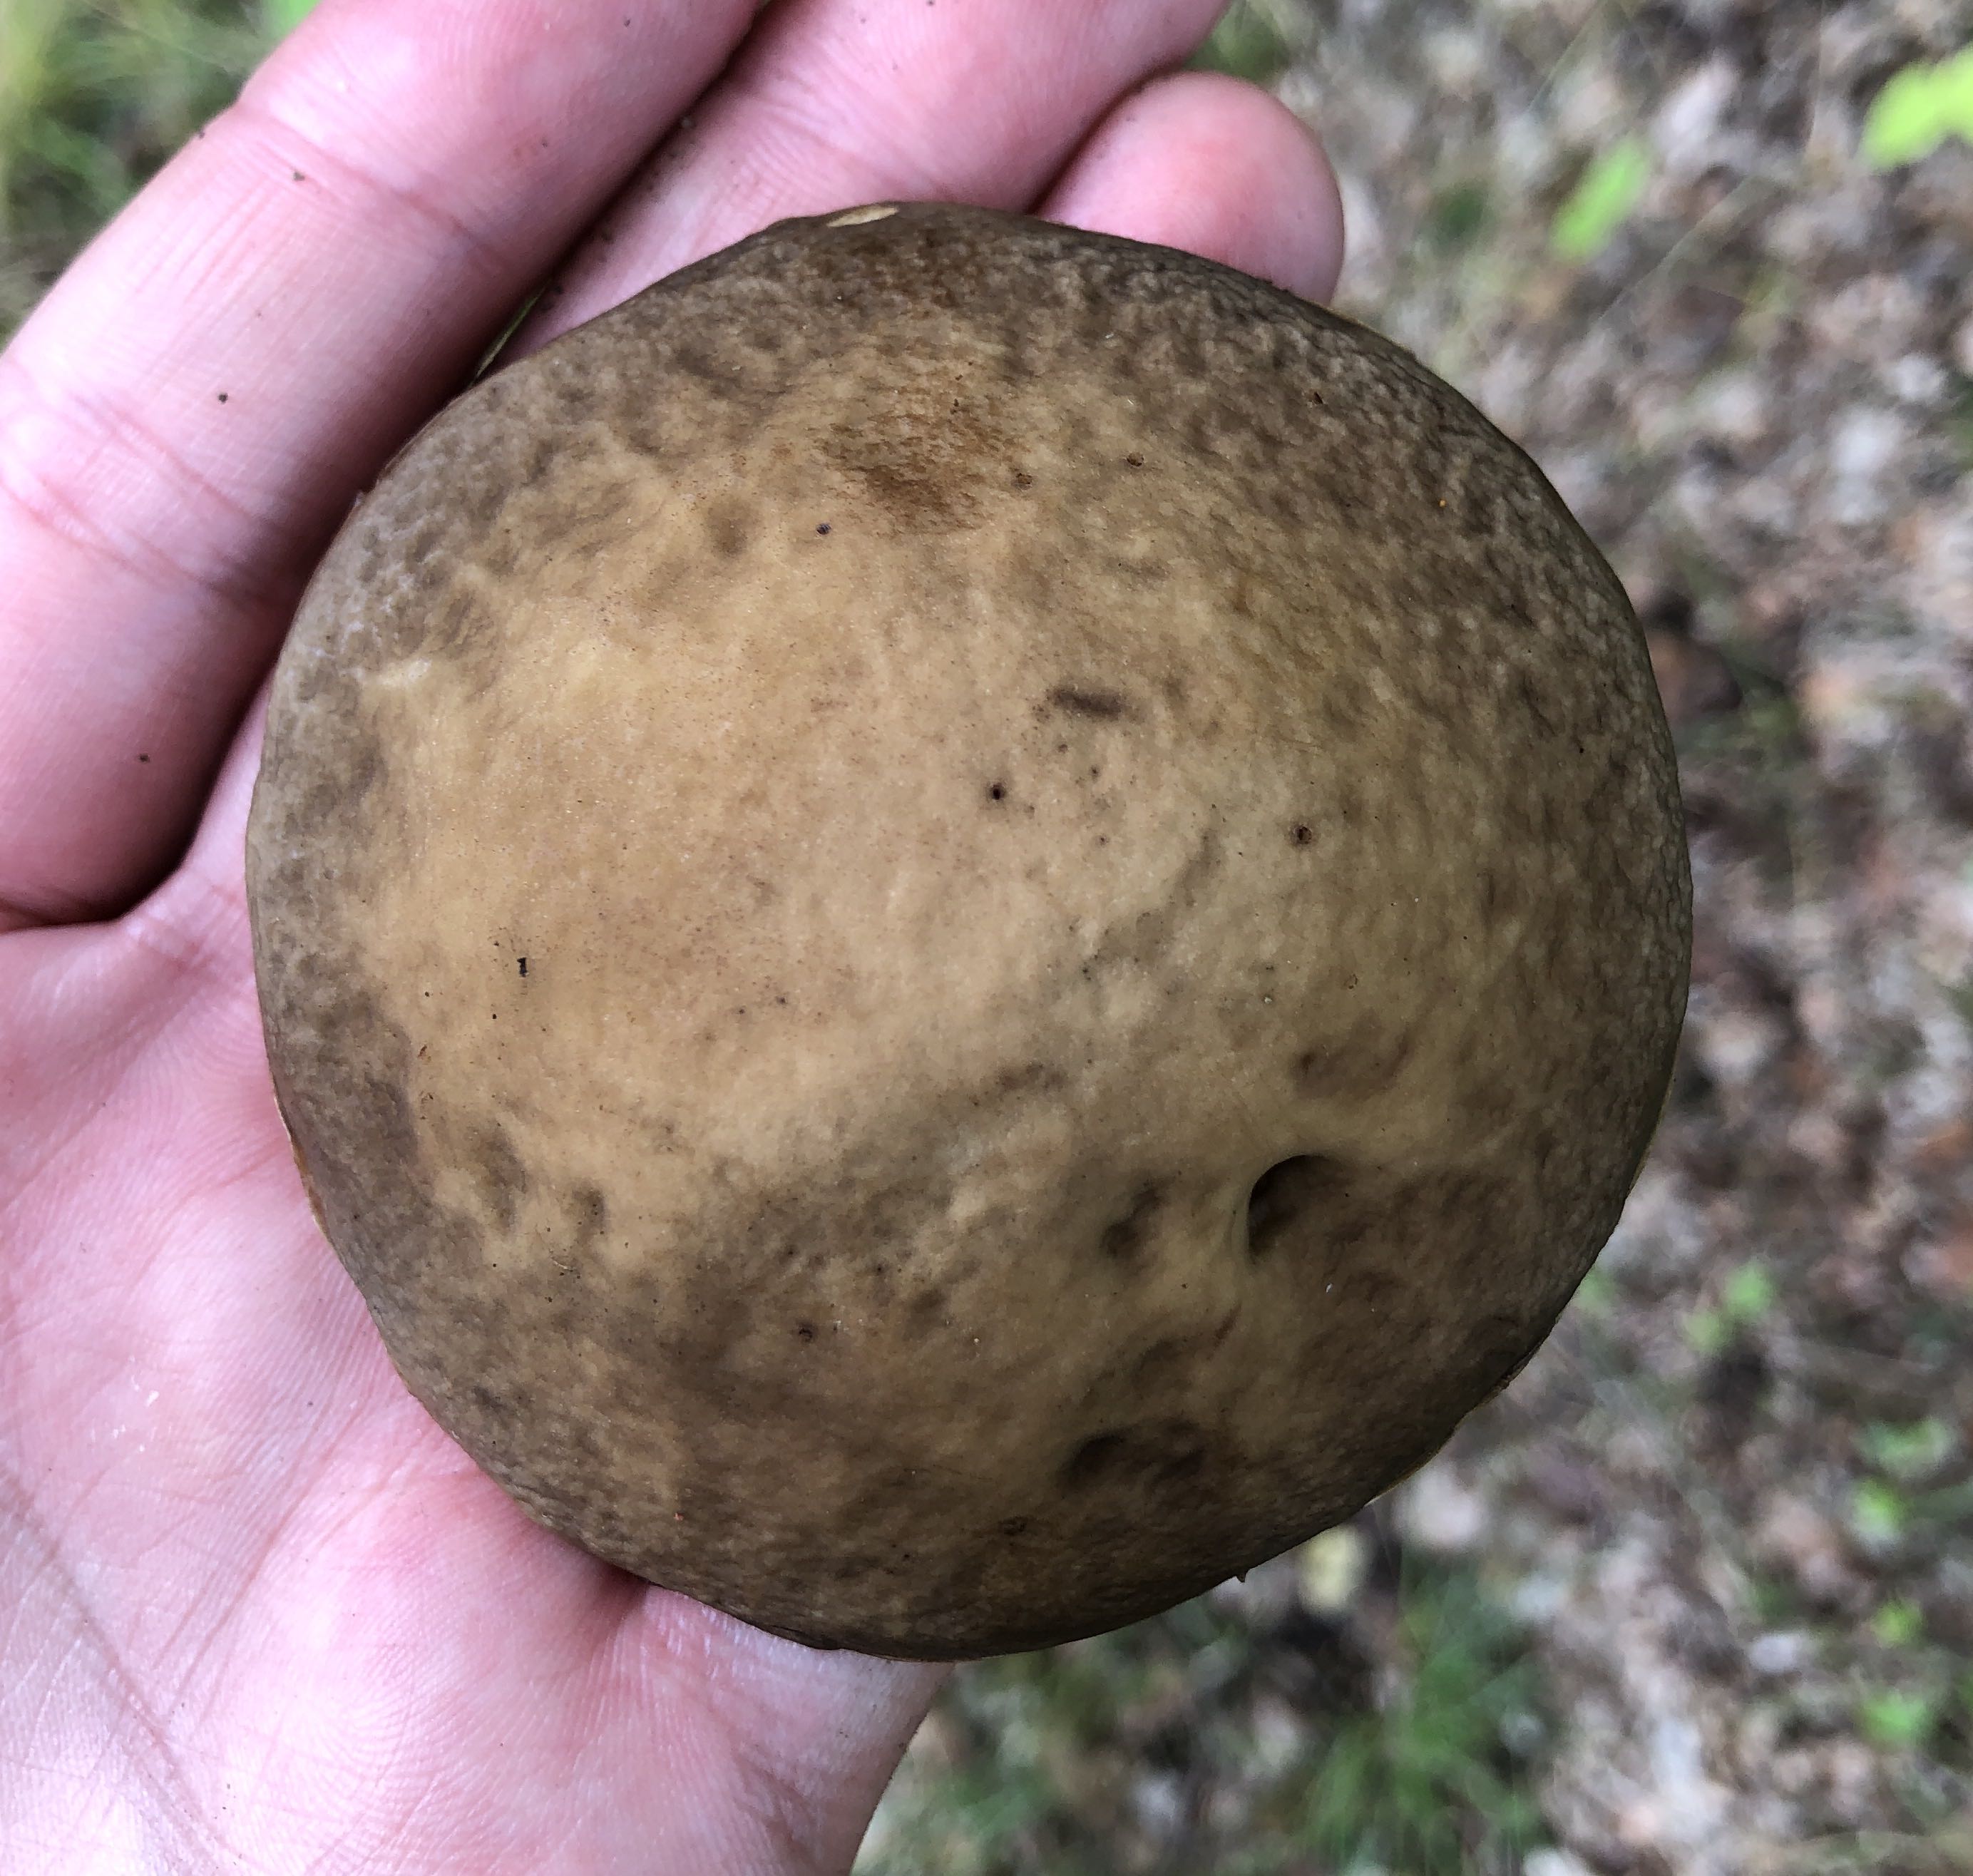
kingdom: Fungi
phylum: Basidiomycota
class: Agaricomycetes
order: Boletales
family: Boletaceae
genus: Leccinellum
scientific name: Leccinellum pseudoscabrum
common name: avnbøg-skælrørhat
